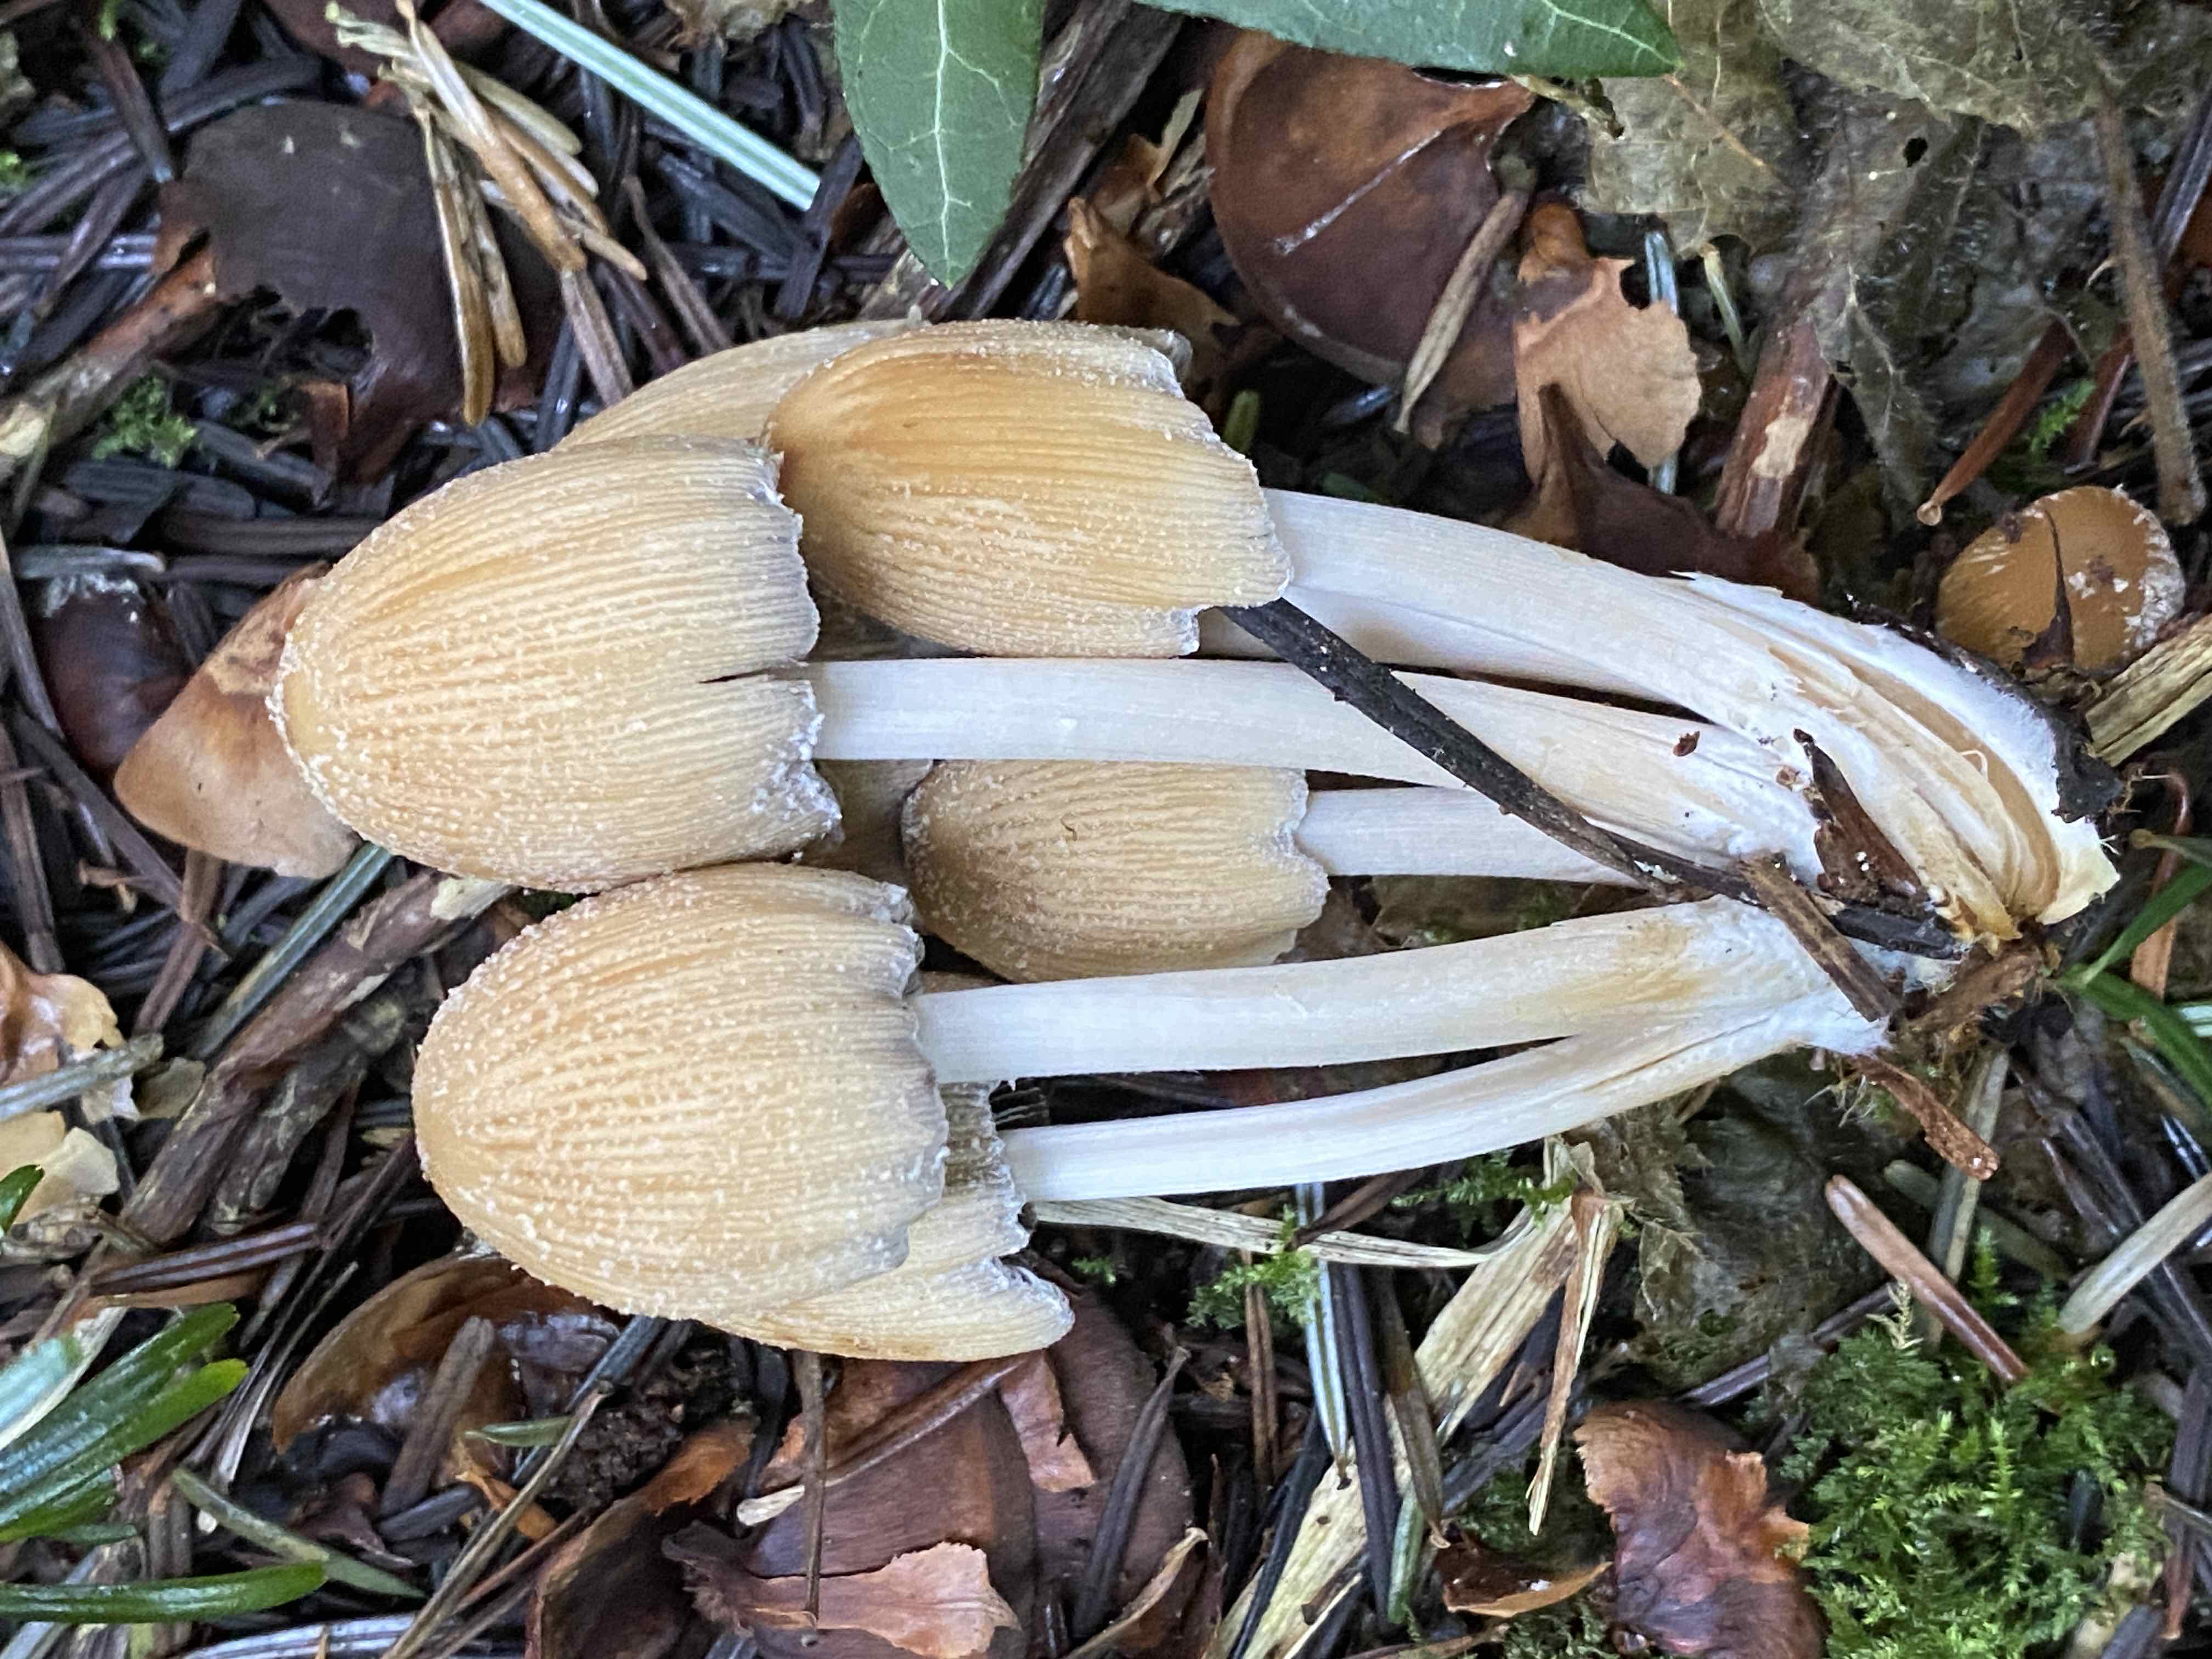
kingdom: Fungi
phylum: Basidiomycota
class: Agaricomycetes
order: Agaricales
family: Psathyrellaceae
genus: Coprinellus
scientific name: Coprinellus micaceus
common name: glimmer-blækhat
